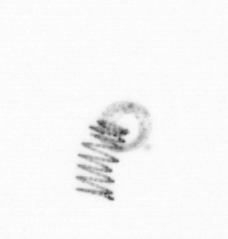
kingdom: Chromista
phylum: Ochrophyta
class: Bacillariophyceae
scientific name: Bacillariophyceae
